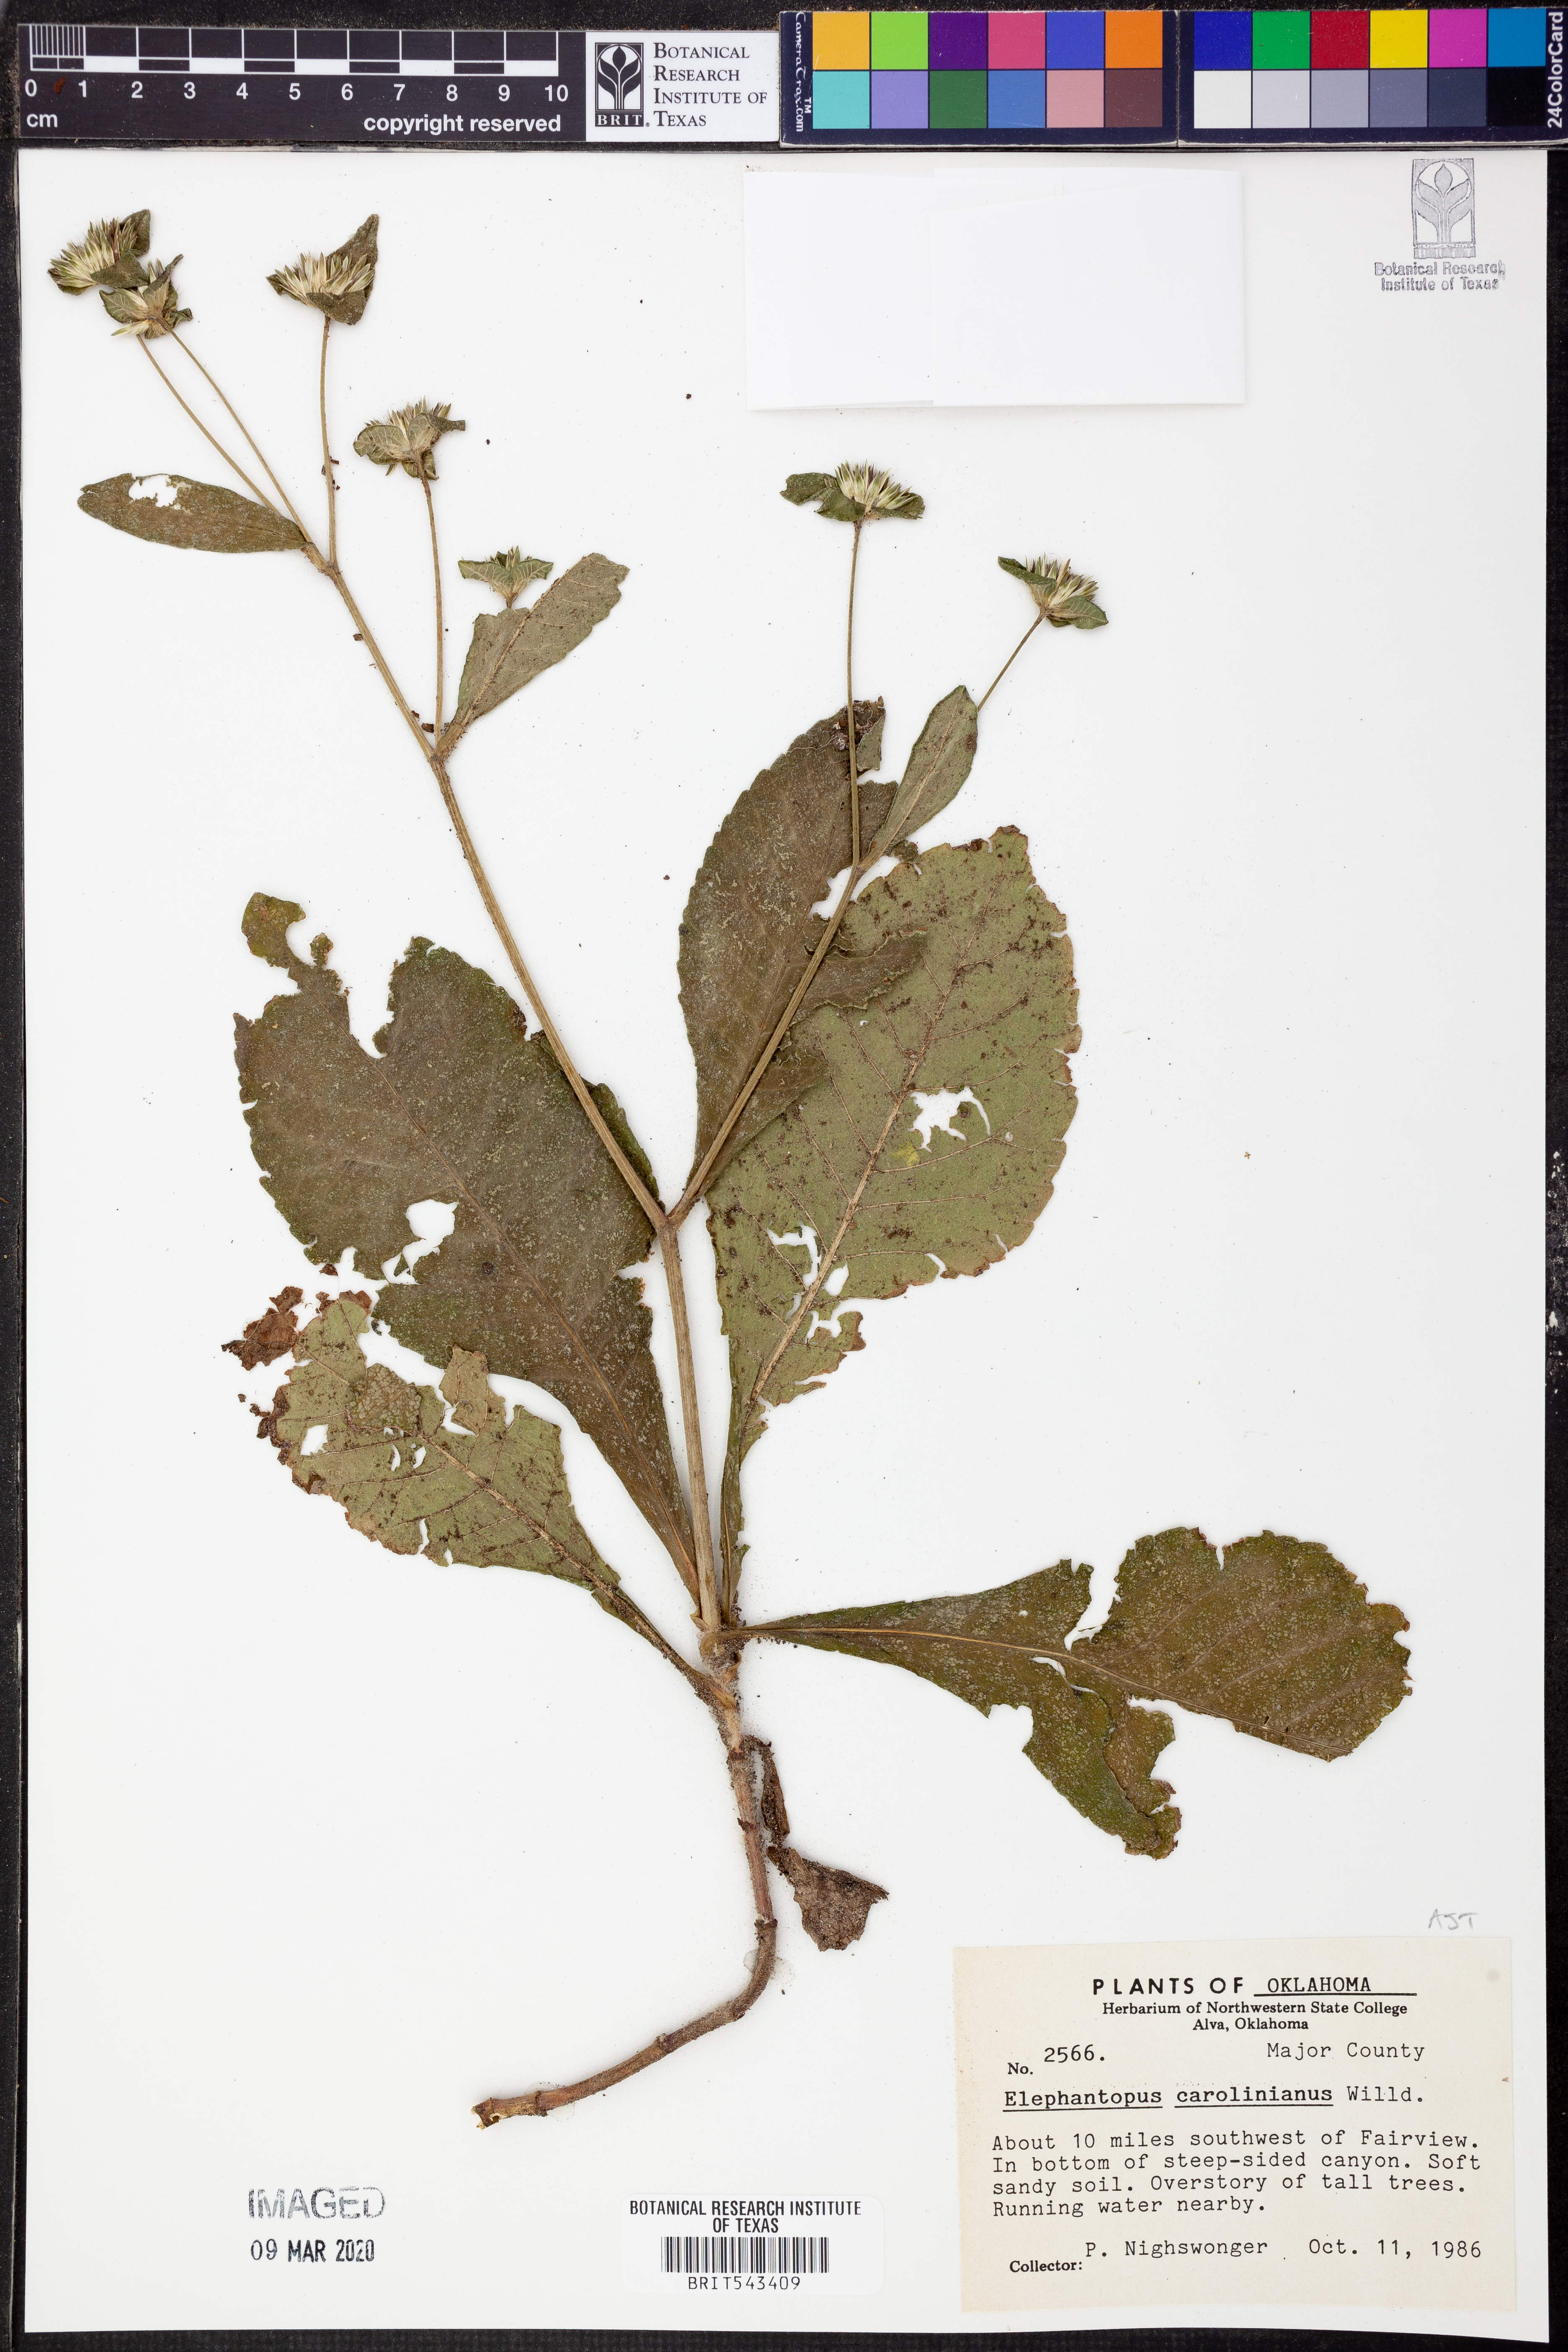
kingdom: Plantae
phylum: Tracheophyta
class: Magnoliopsida
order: Asterales
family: Asteraceae
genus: Elephantopus
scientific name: Elephantopus carolinianus
